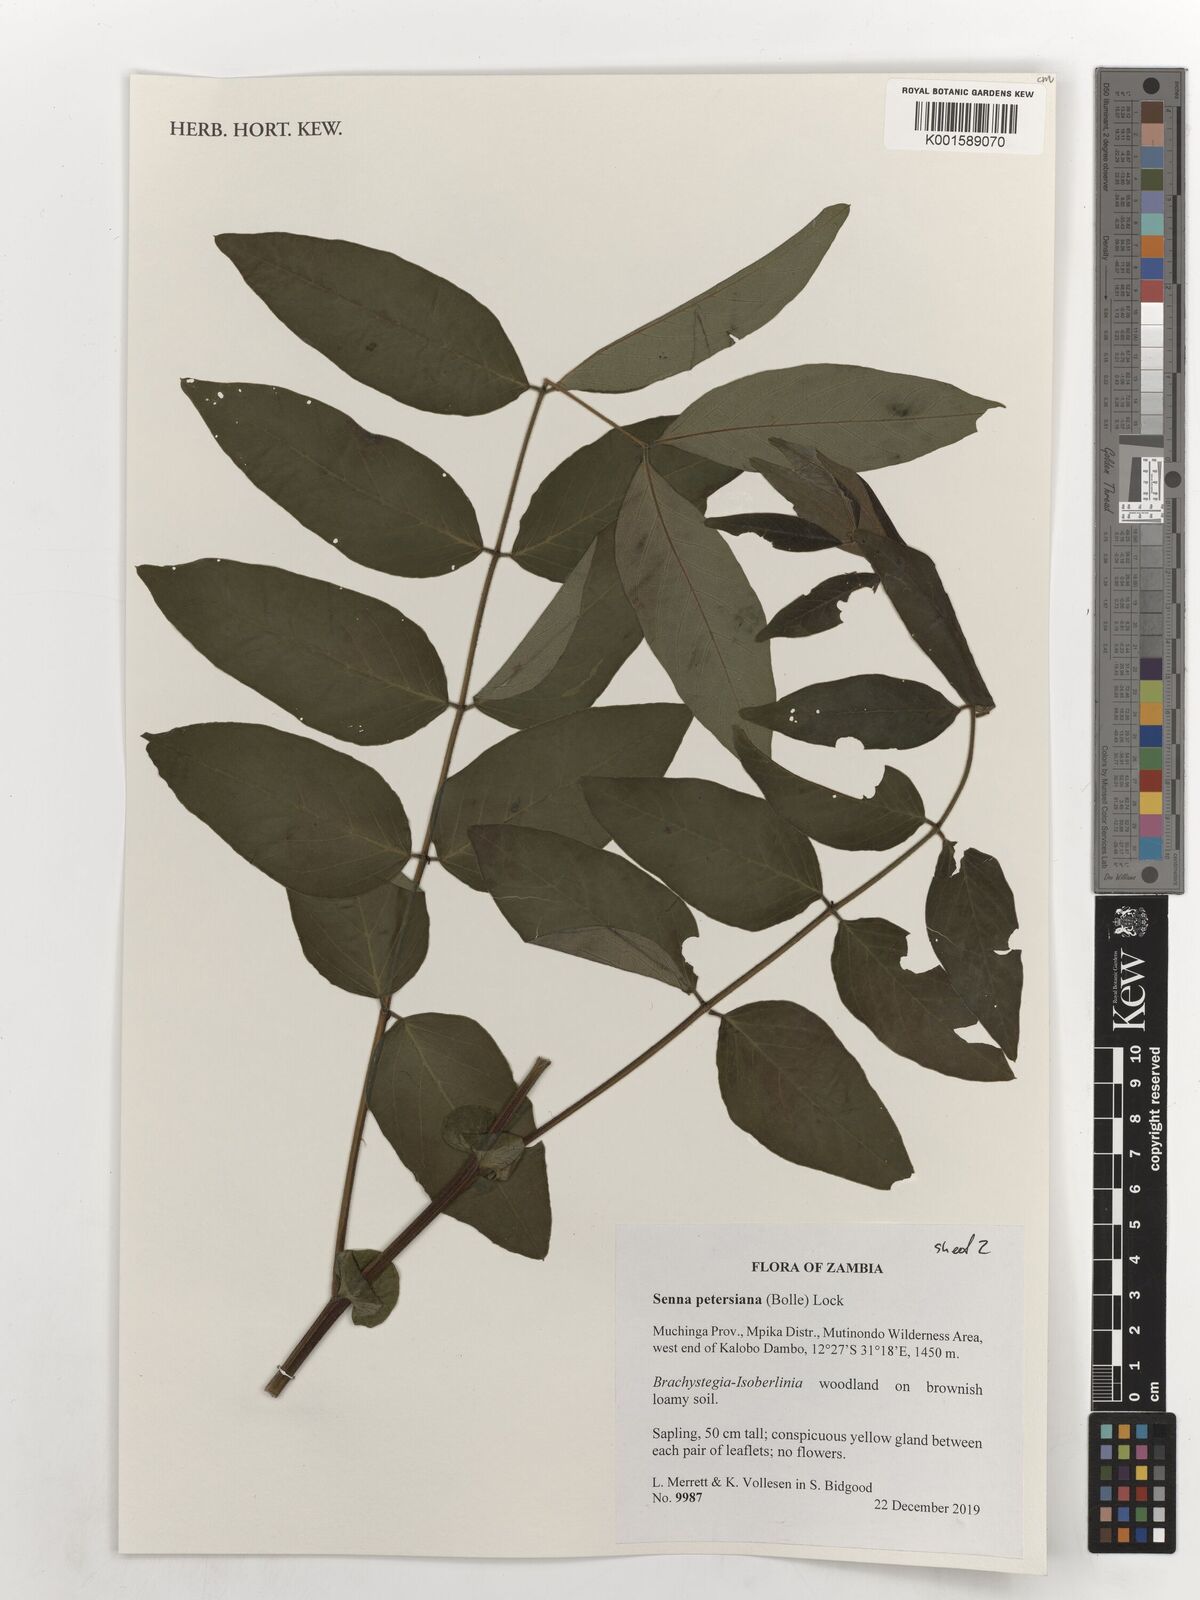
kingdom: Plantae
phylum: Tracheophyta
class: Magnoliopsida
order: Fabales
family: Fabaceae
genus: Senna
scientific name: Senna petersiana
